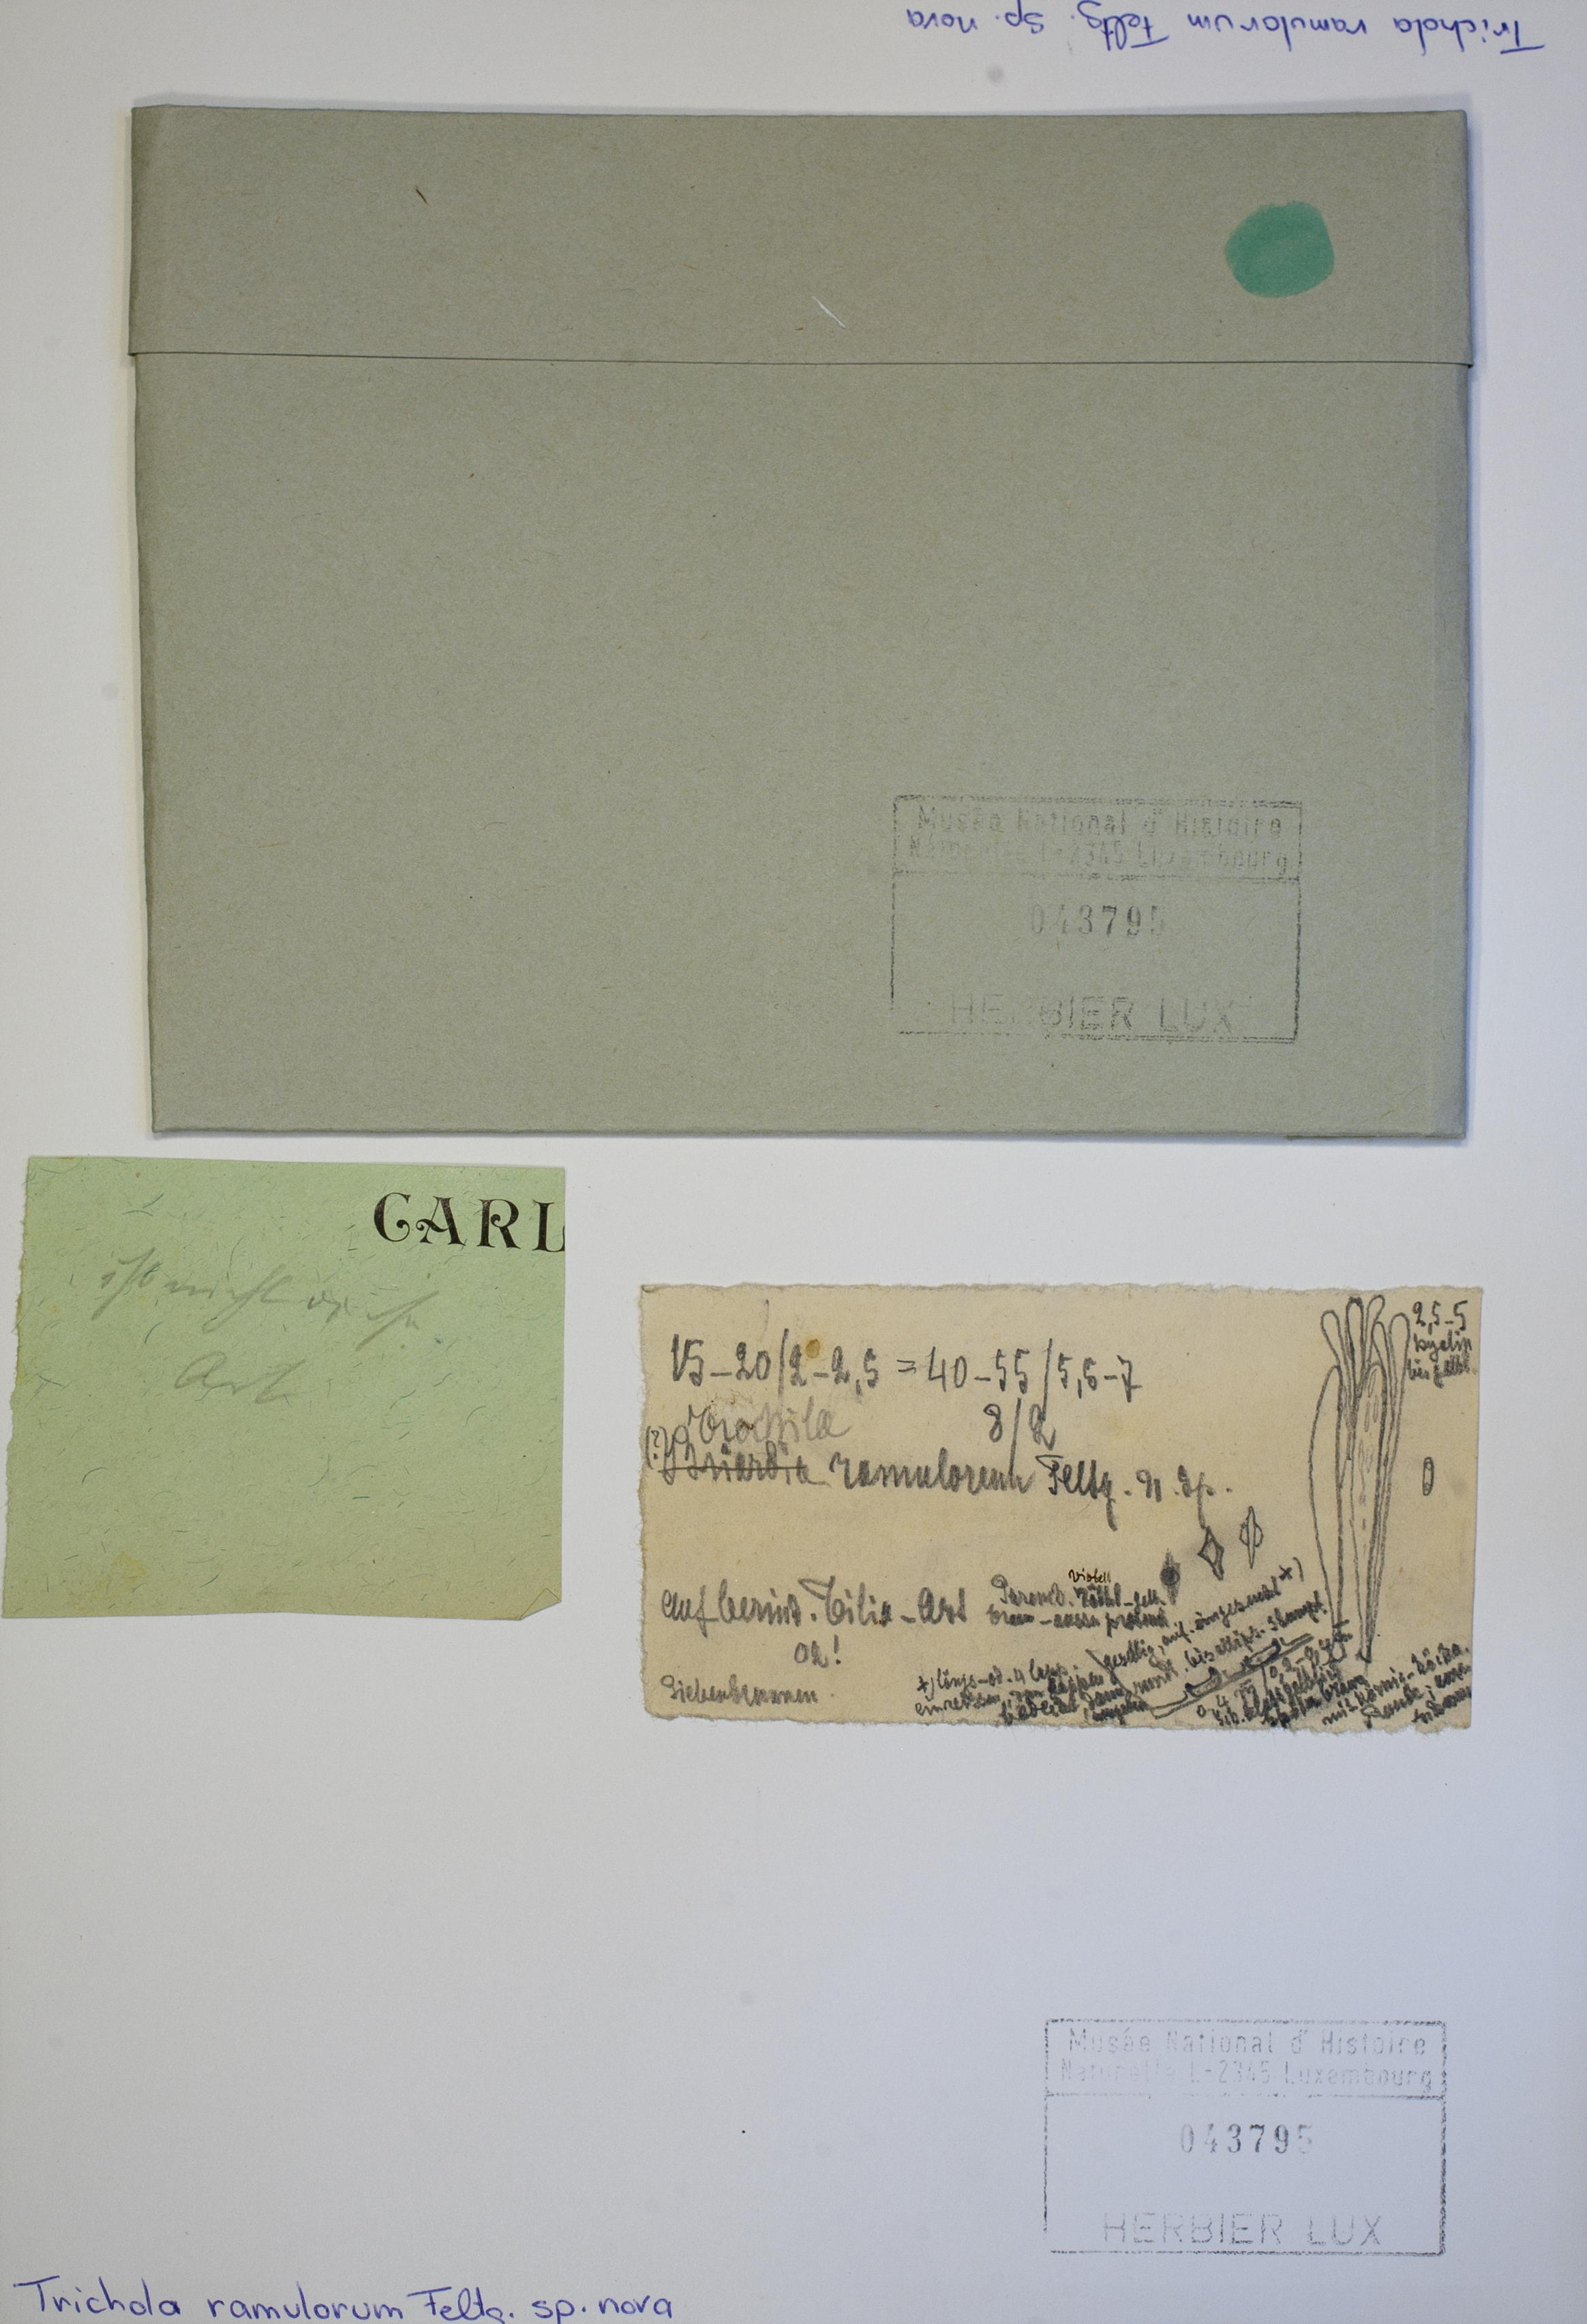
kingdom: Fungi
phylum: Ascomycota
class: Leotiomycetes
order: Helotiales
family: Cenangiaceae
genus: Trochila
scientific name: Trochila ramulorum
